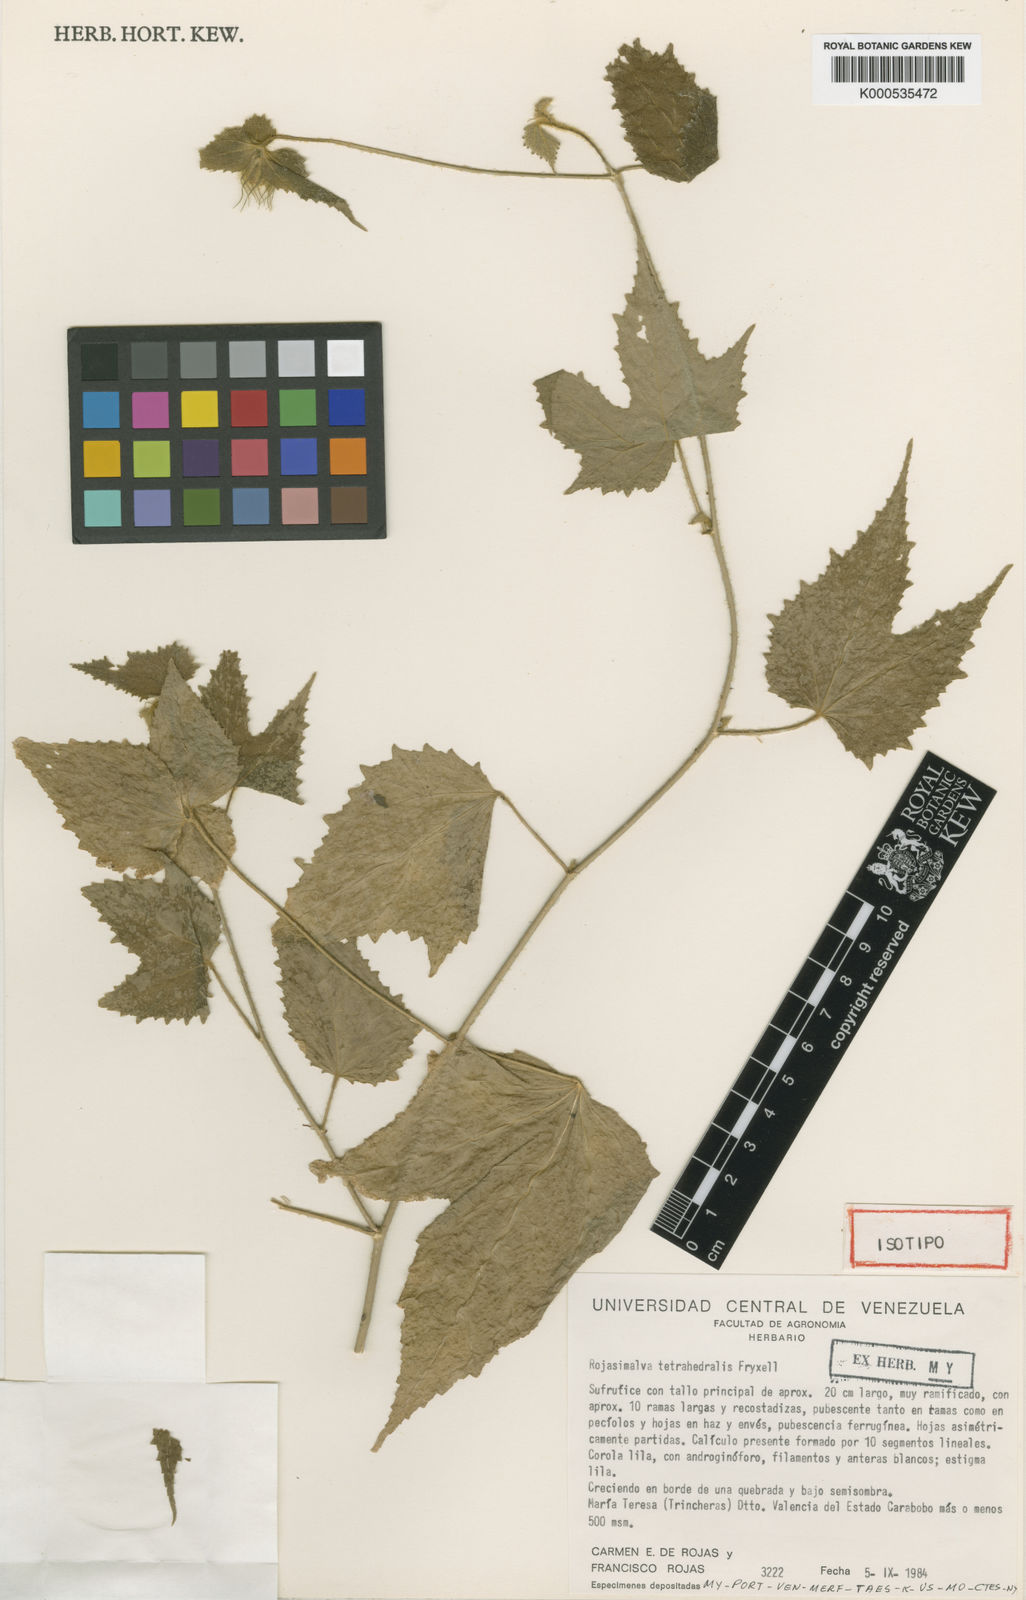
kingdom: Plantae
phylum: Tracheophyta
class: Magnoliopsida
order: Malvales
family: Malvaceae
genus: Rojasimalva
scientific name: Rojasimalva tetrahedralis
